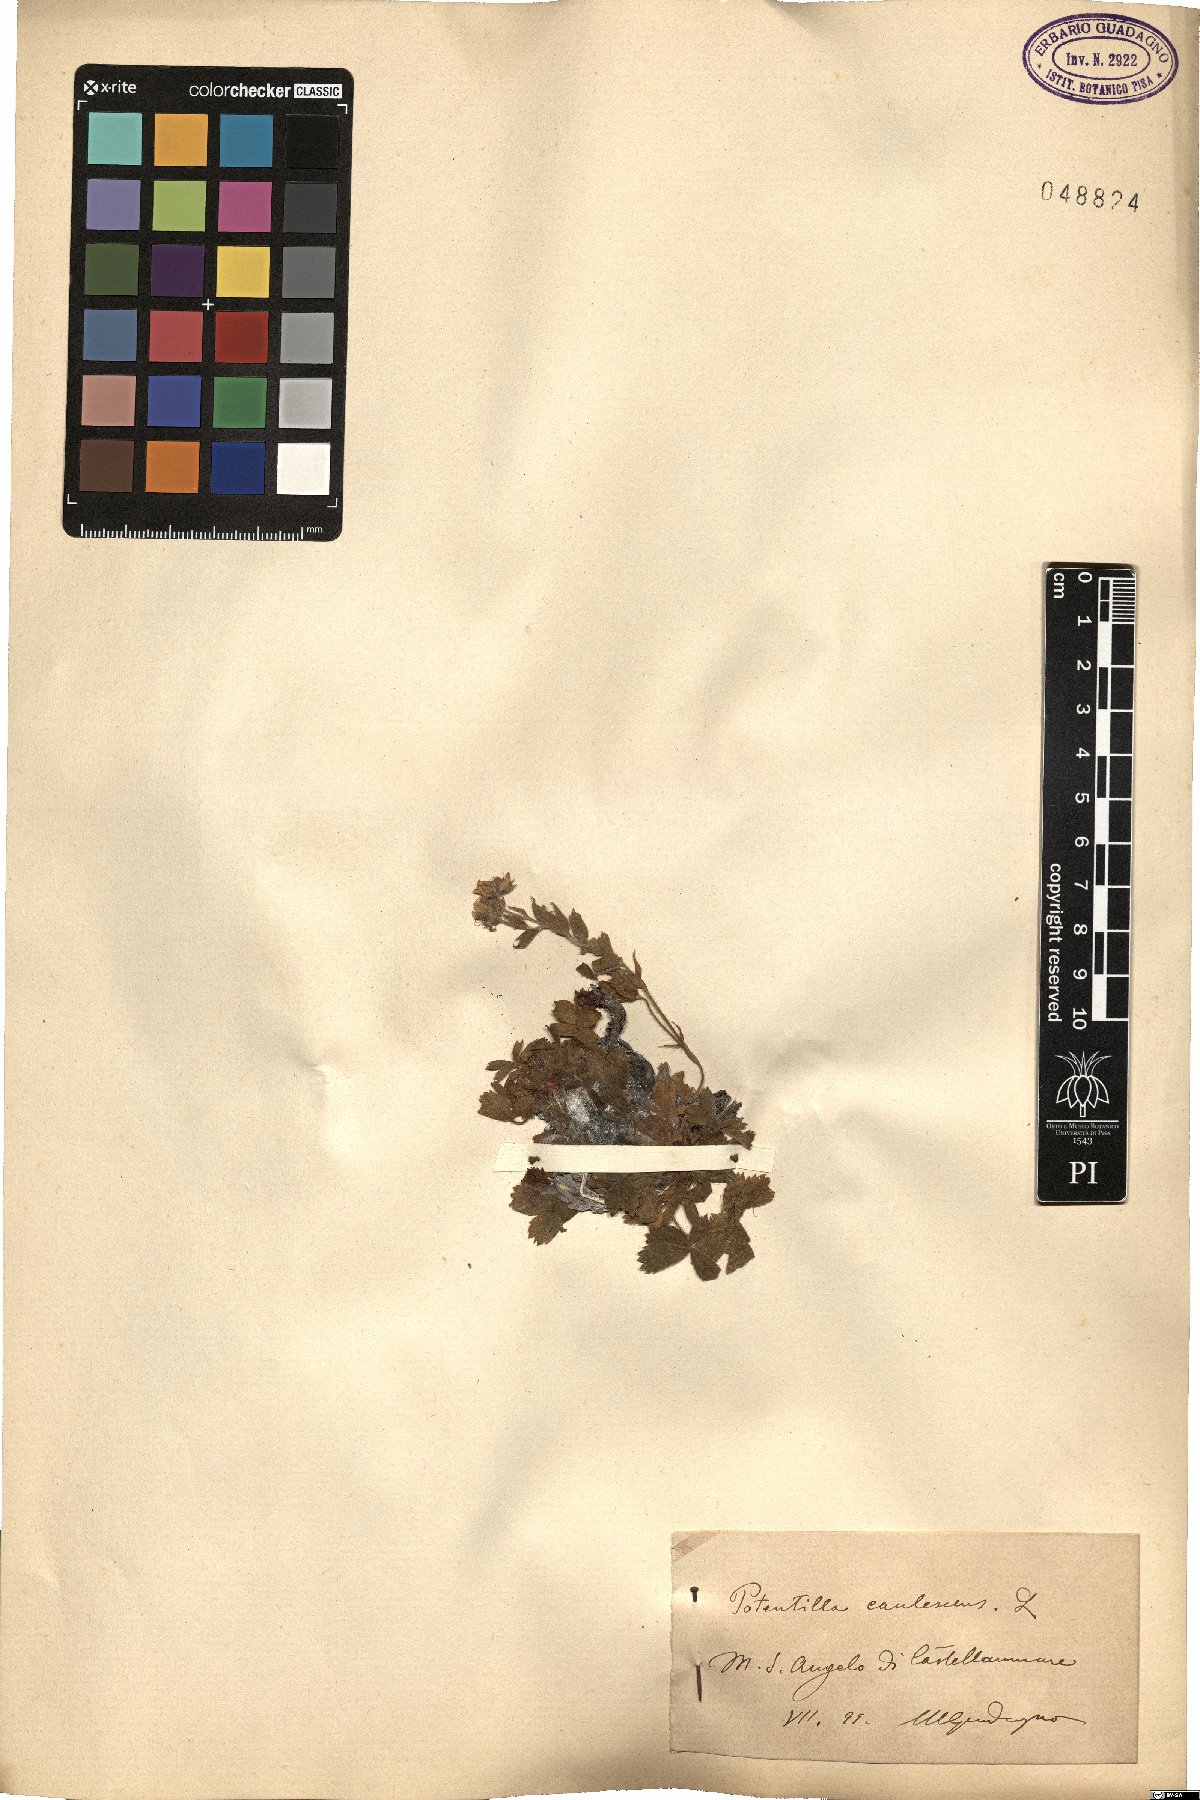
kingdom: Plantae
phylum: Tracheophyta
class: Magnoliopsida
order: Rosales
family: Rosaceae
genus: Potentilla
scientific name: Potentilla caulescens
